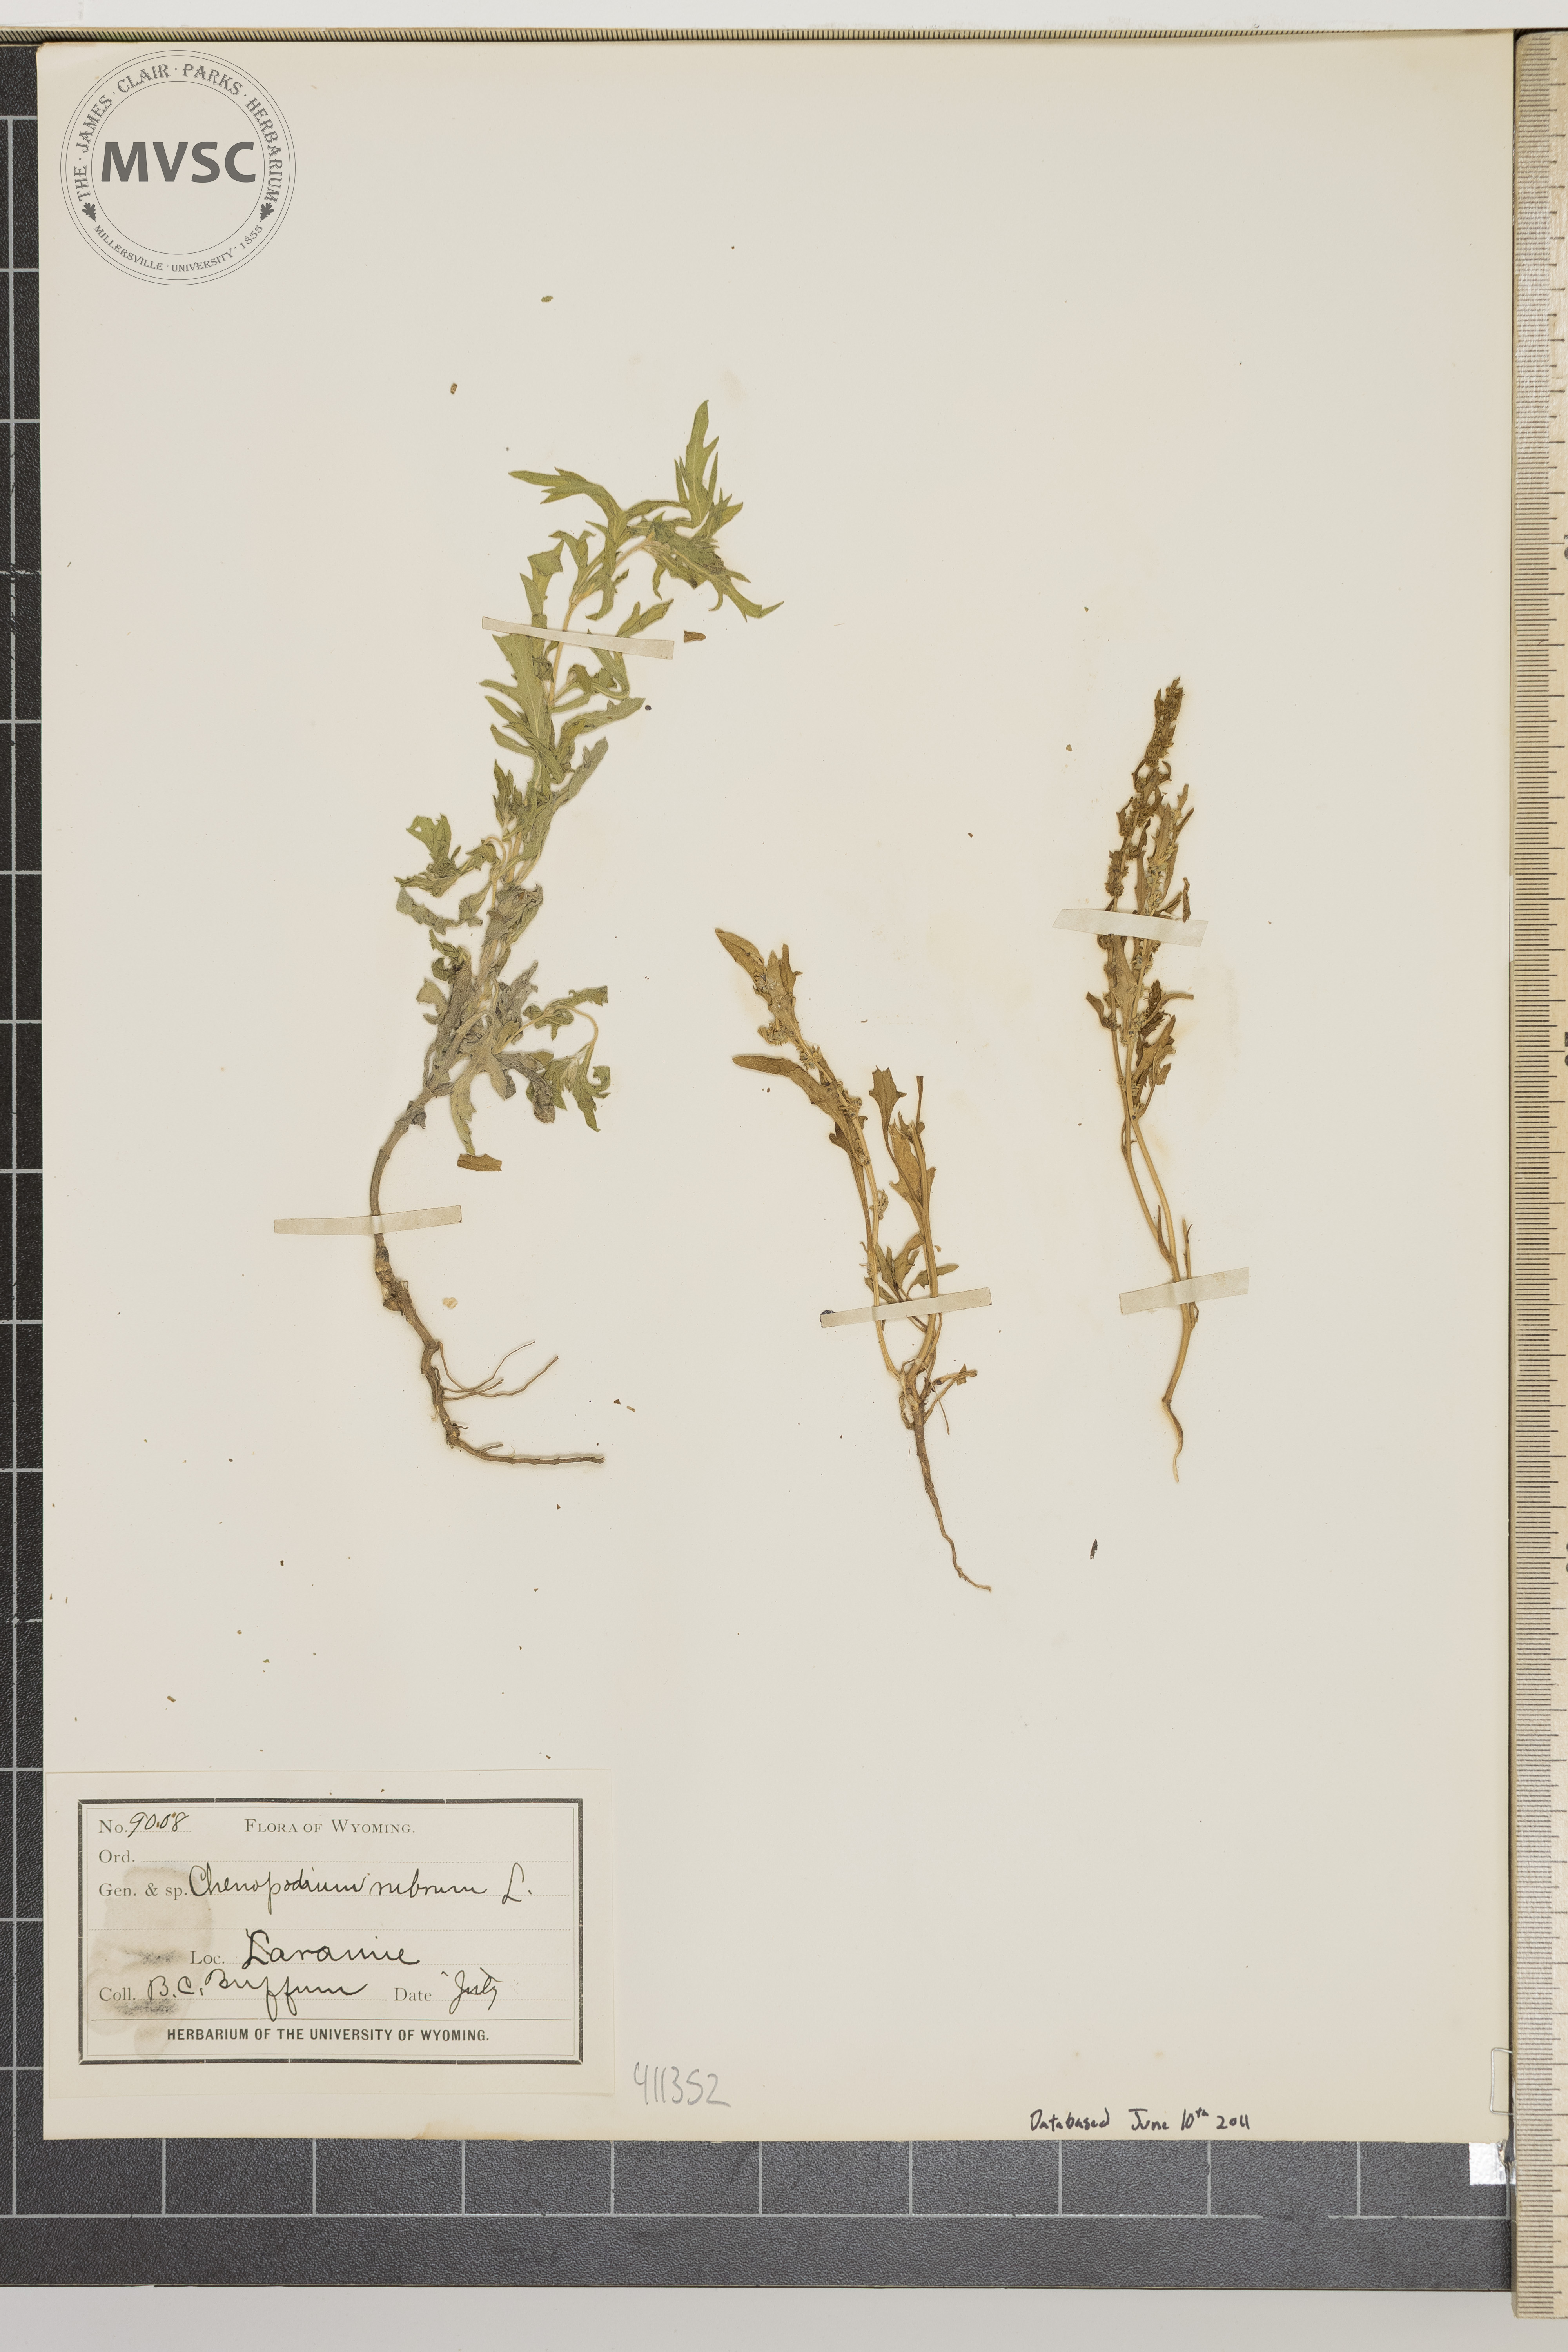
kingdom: Plantae
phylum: Tracheophyta
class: Magnoliopsida
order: Caryophyllales
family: Amaranthaceae
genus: Chenopodium
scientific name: Chenopodium rubrum
